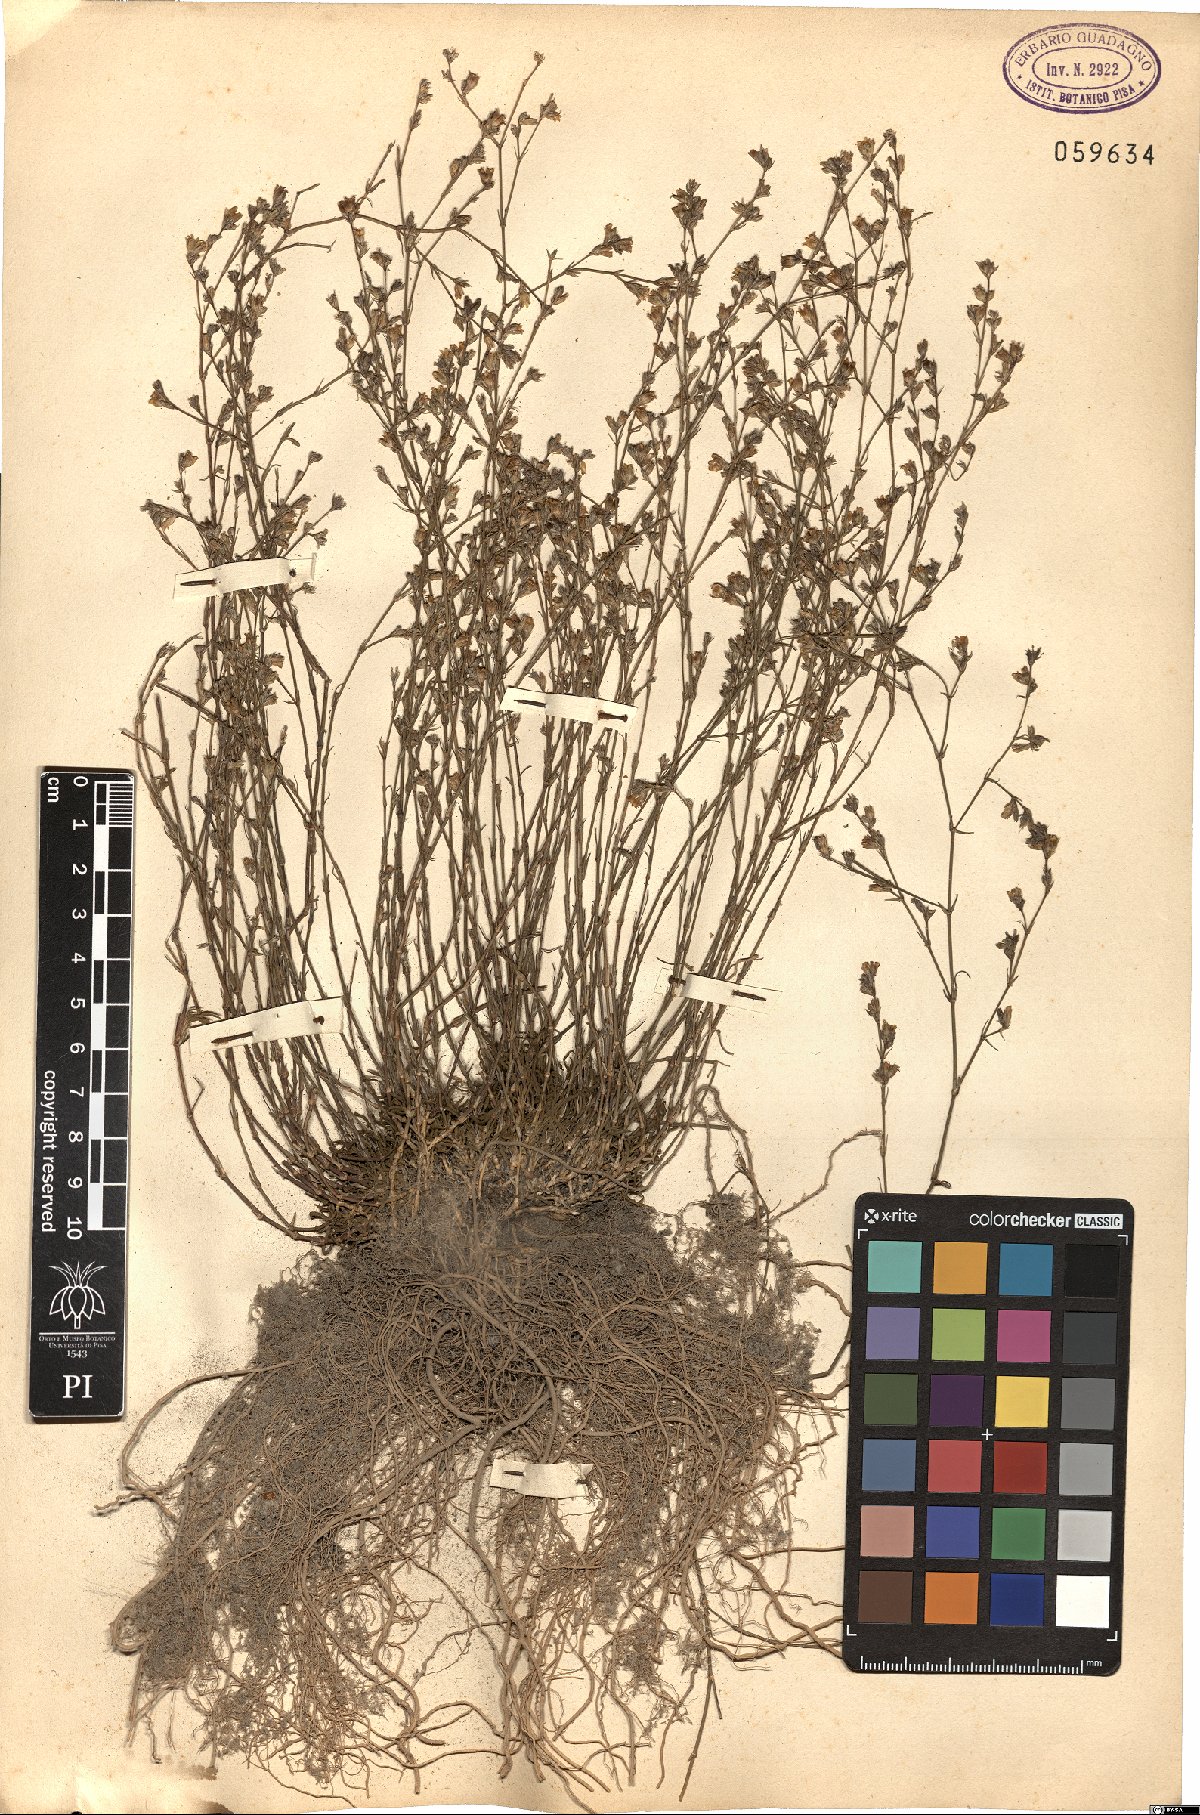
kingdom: Plantae
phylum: Tracheophyta
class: Magnoliopsida
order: Caryophyllales
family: Caryophyllaceae
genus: Petrorhagia
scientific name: Petrorhagia saxifraga
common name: Tunicflower
